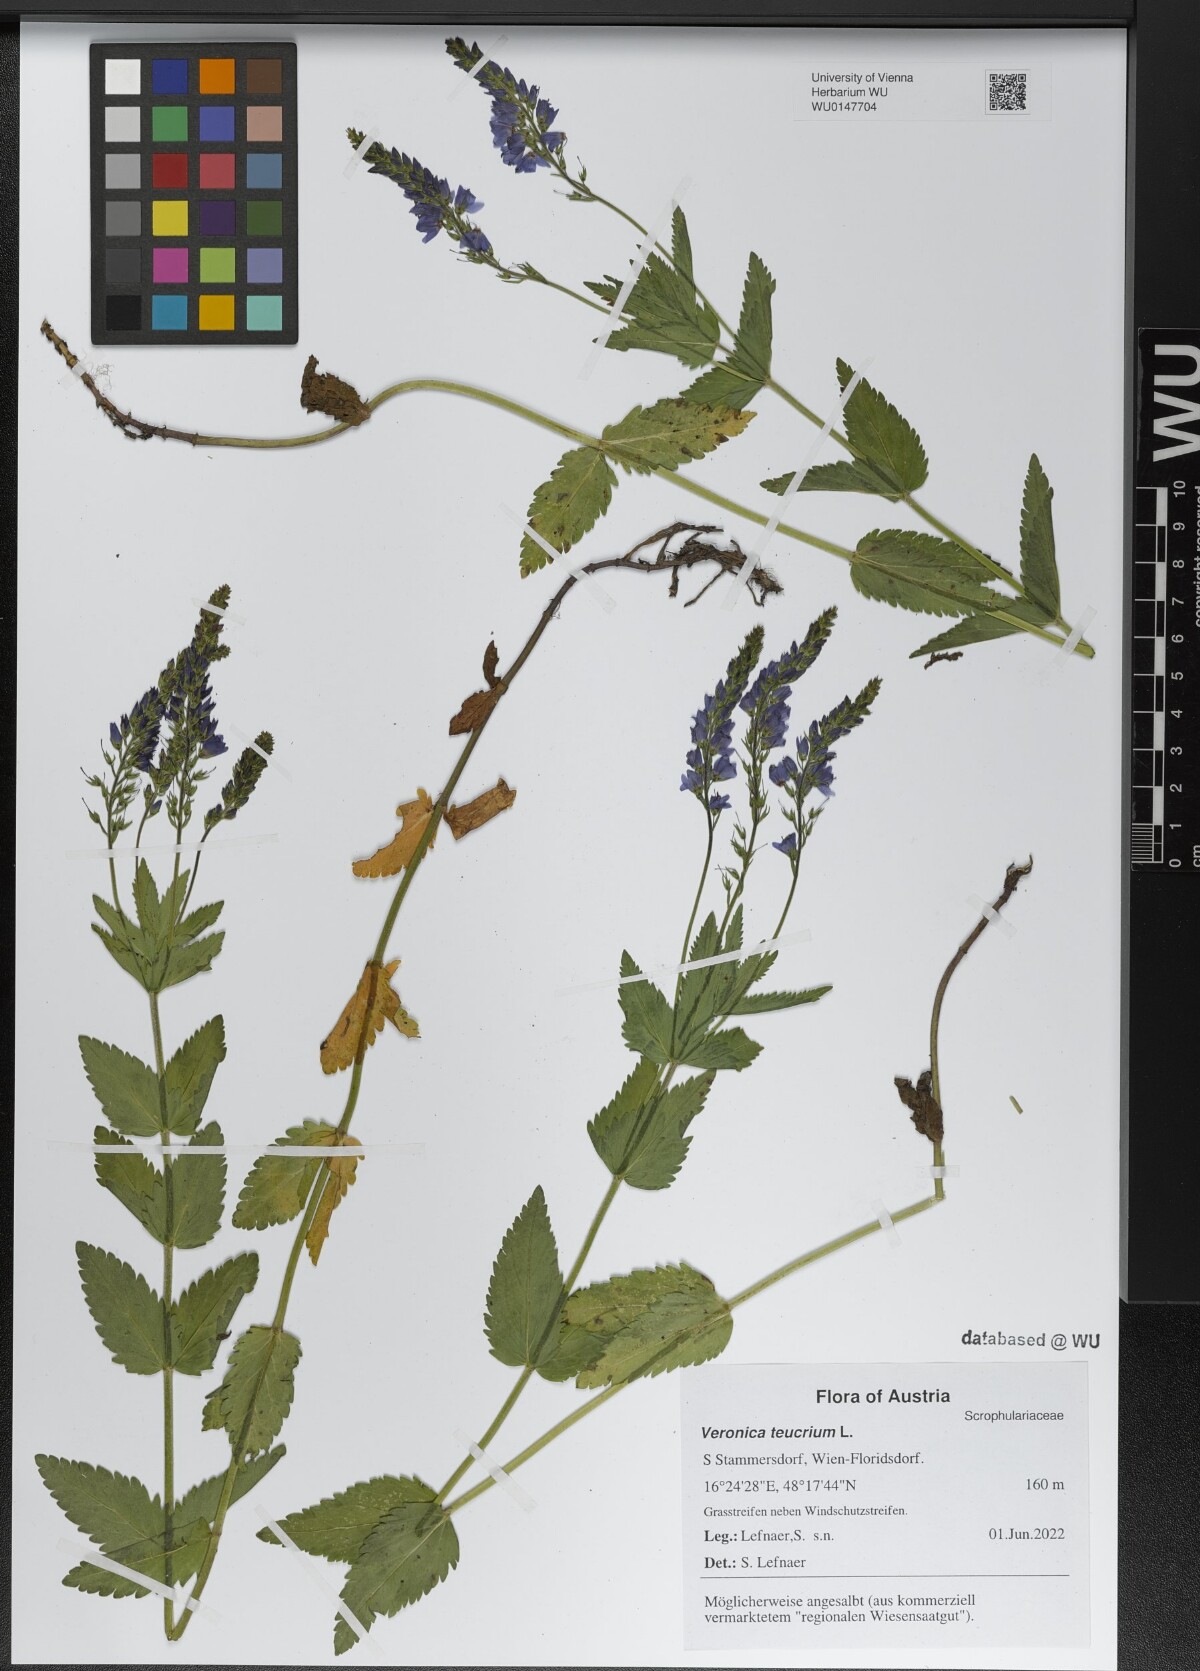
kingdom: Plantae
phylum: Tracheophyta
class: Magnoliopsida
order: Lamiales
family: Plantaginaceae
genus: Veronica
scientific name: Veronica teucrium
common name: Large speedwell
